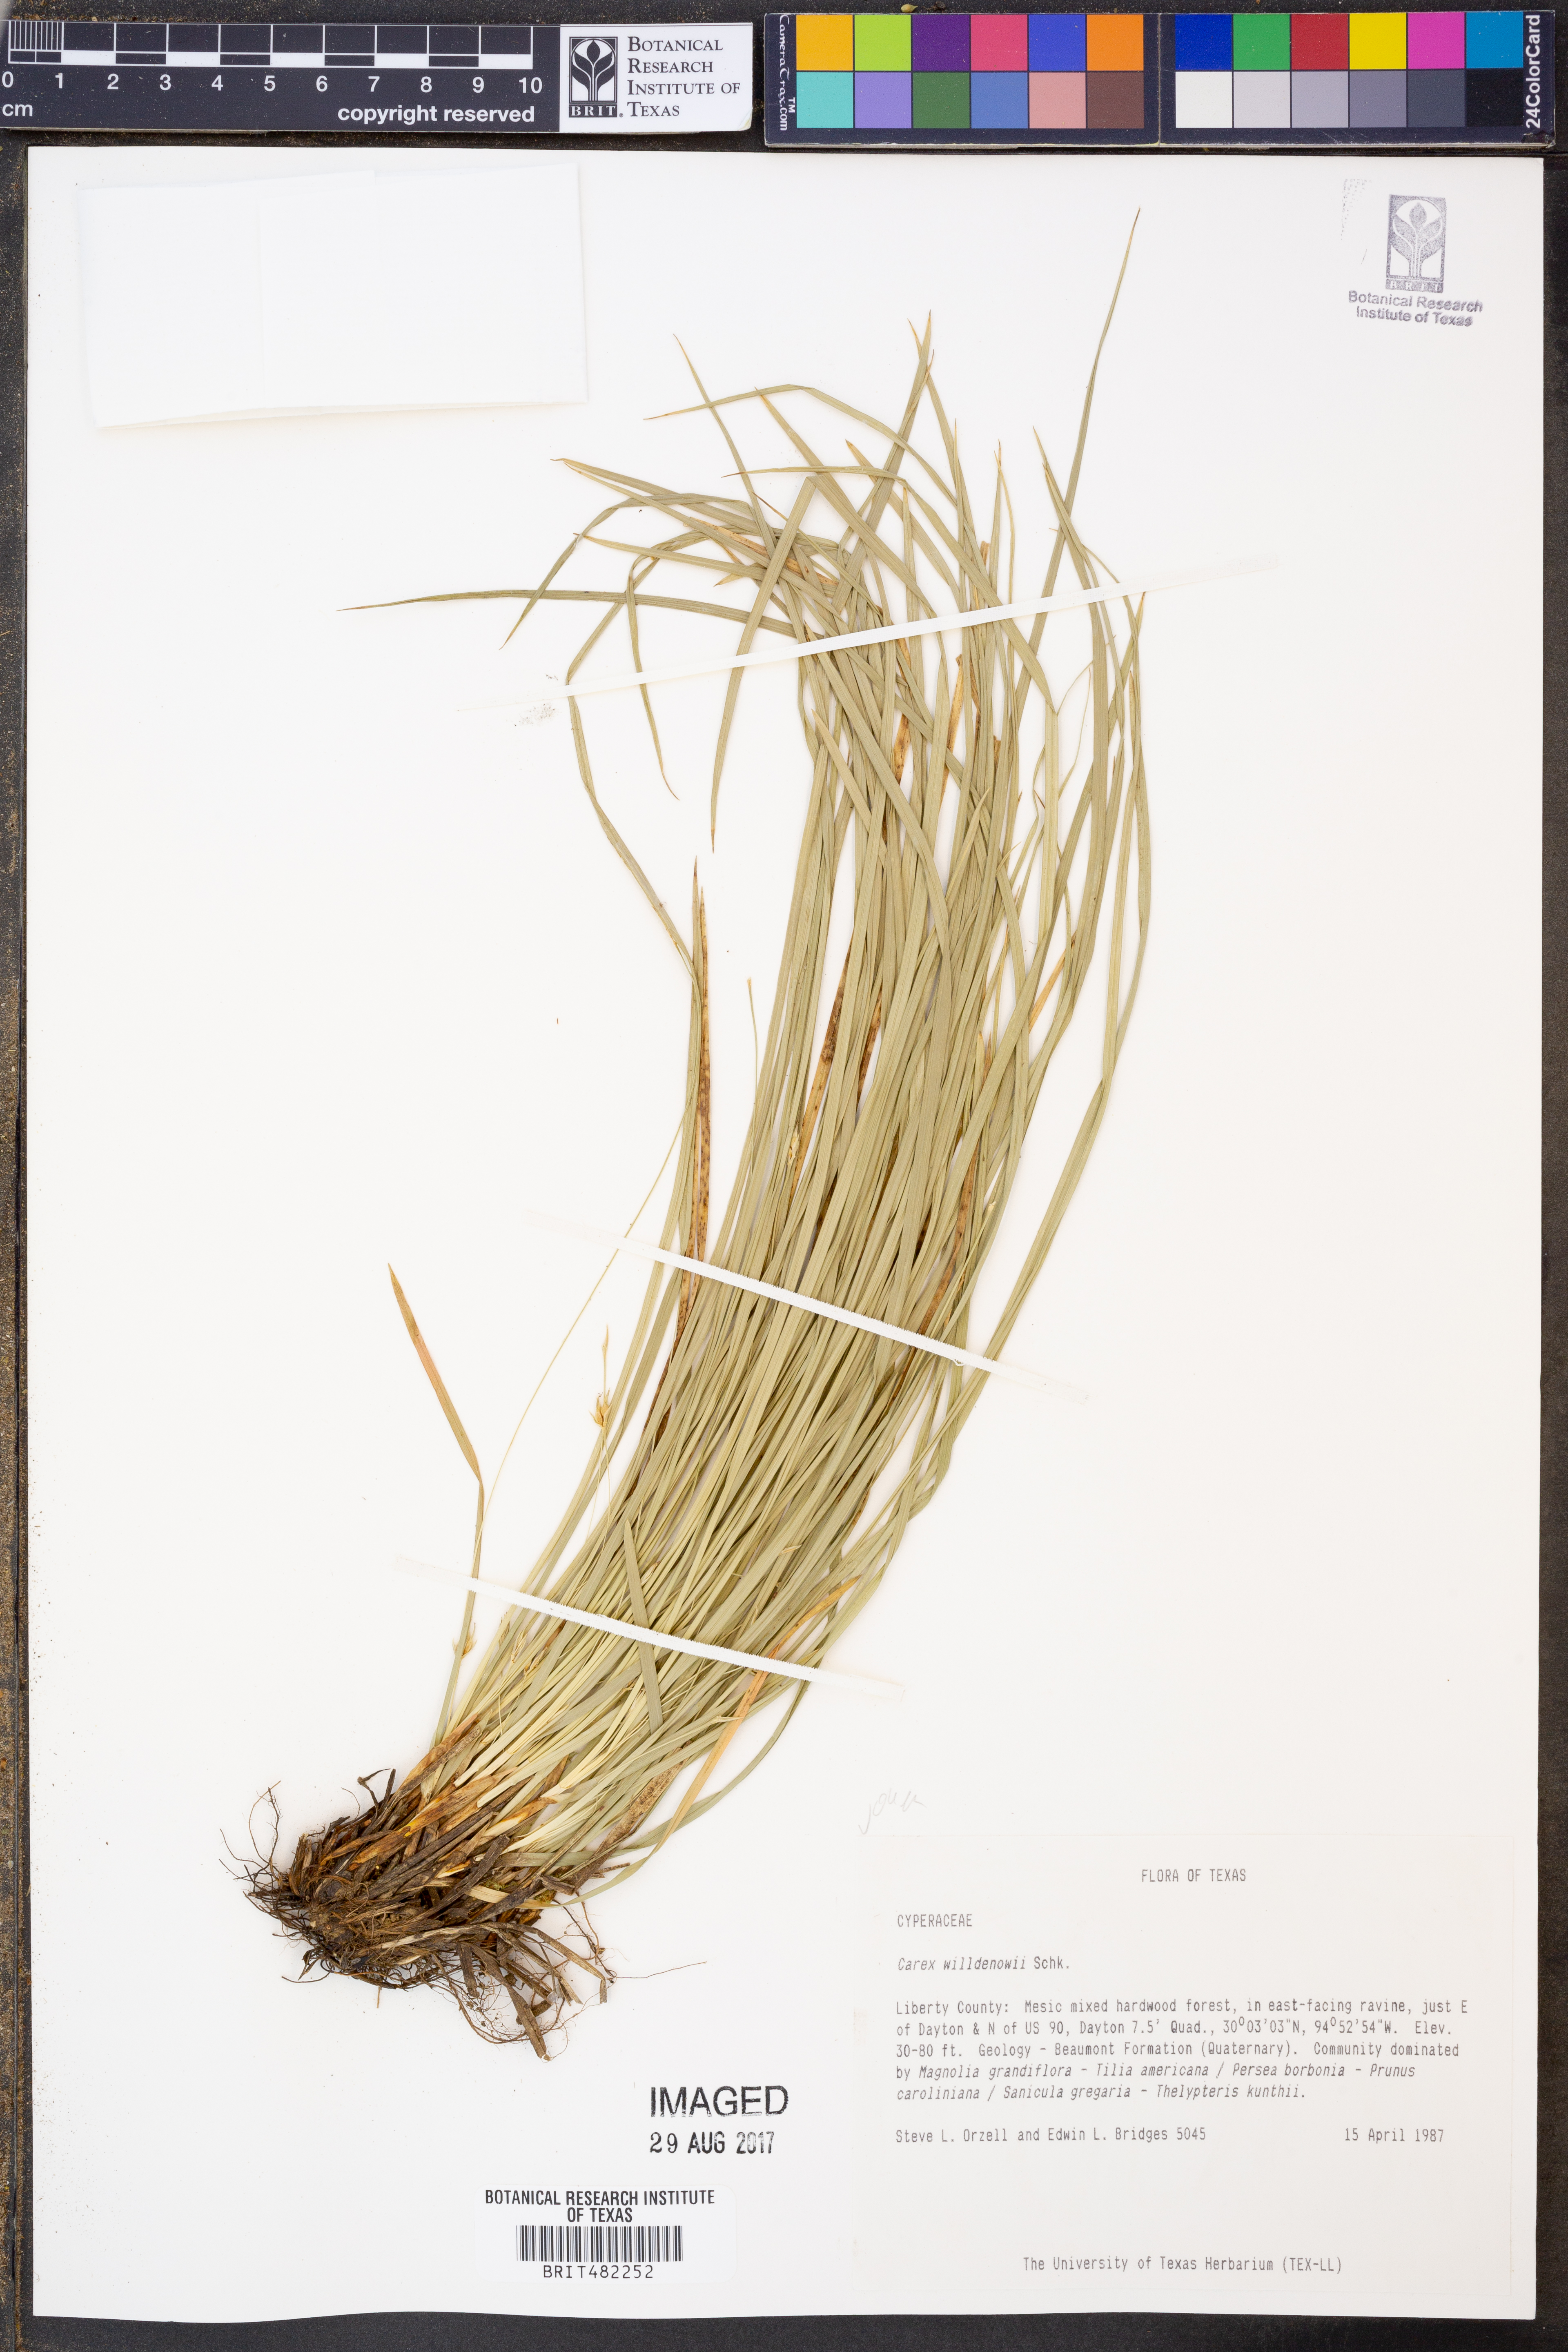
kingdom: Plantae
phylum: Tracheophyta
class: Liliopsida
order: Poales
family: Cyperaceae
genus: Carex
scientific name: Carex willdenowii
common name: Willdenow's sedge
